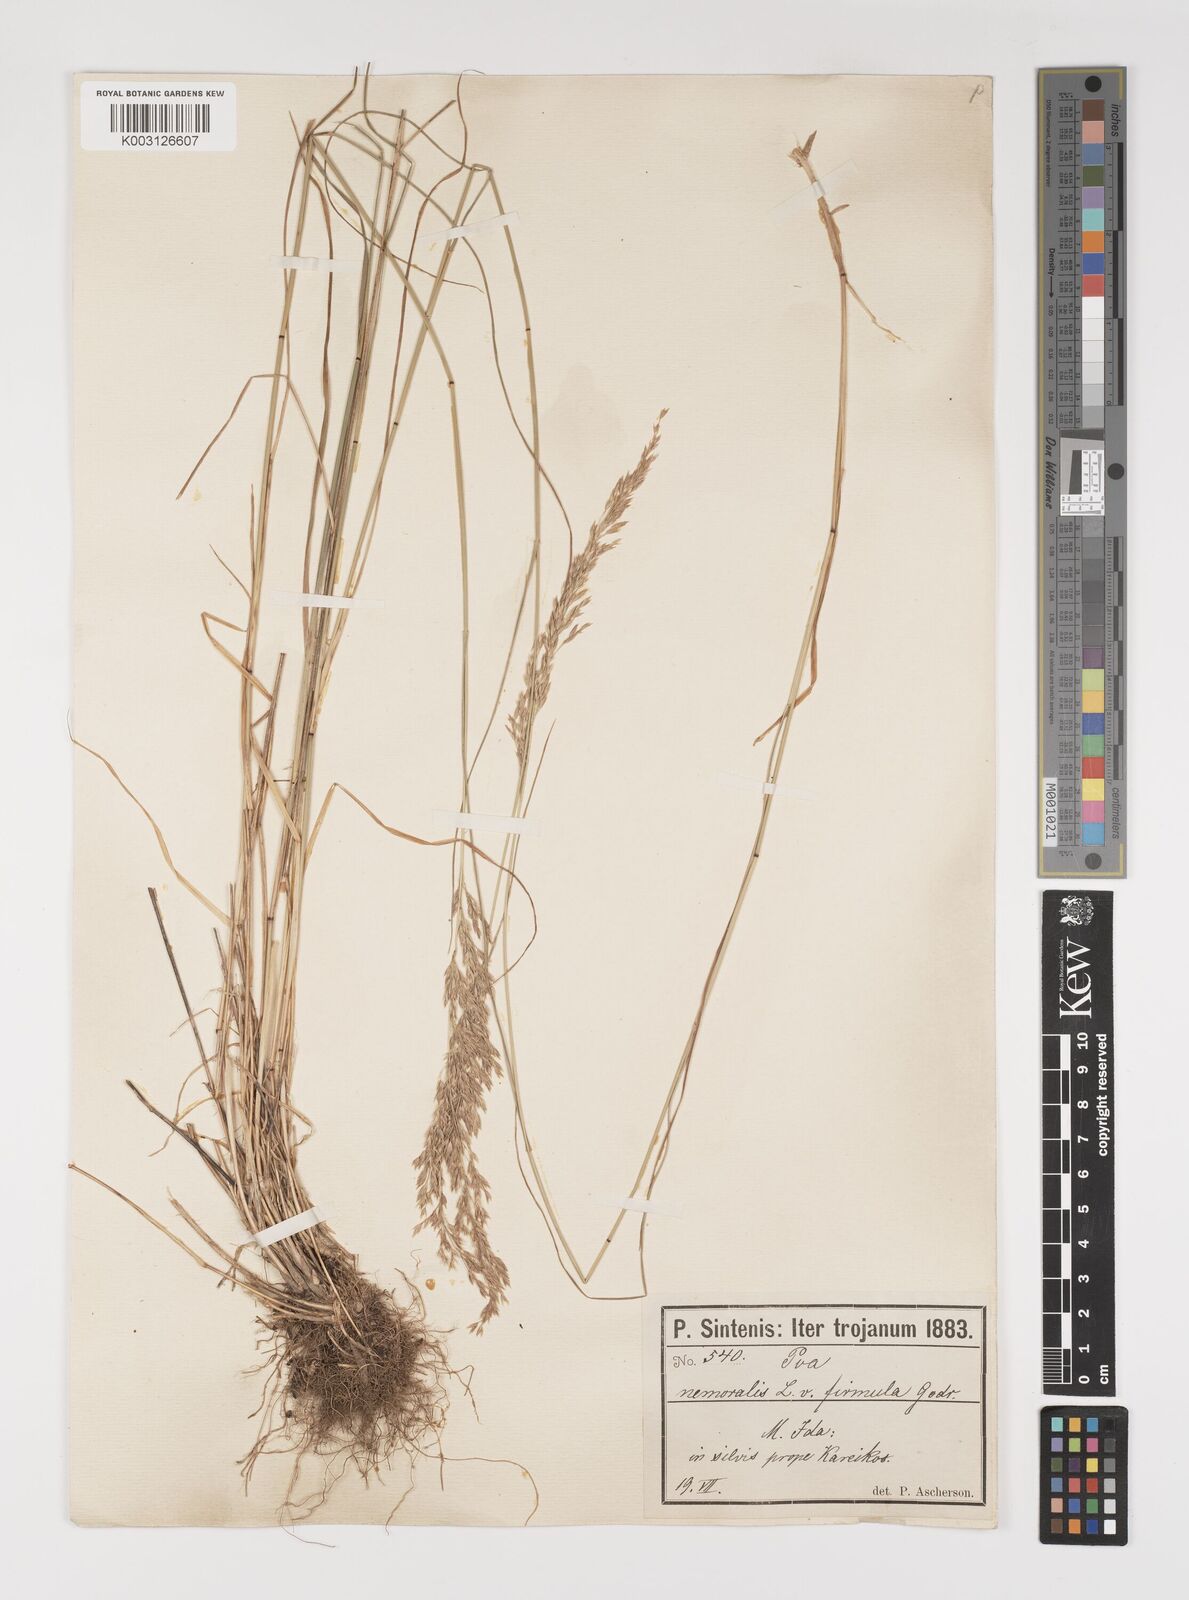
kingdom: Plantae
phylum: Tracheophyta
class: Liliopsida
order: Poales
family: Poaceae
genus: Poa
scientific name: Poa nemoralis
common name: Wood bluegrass
